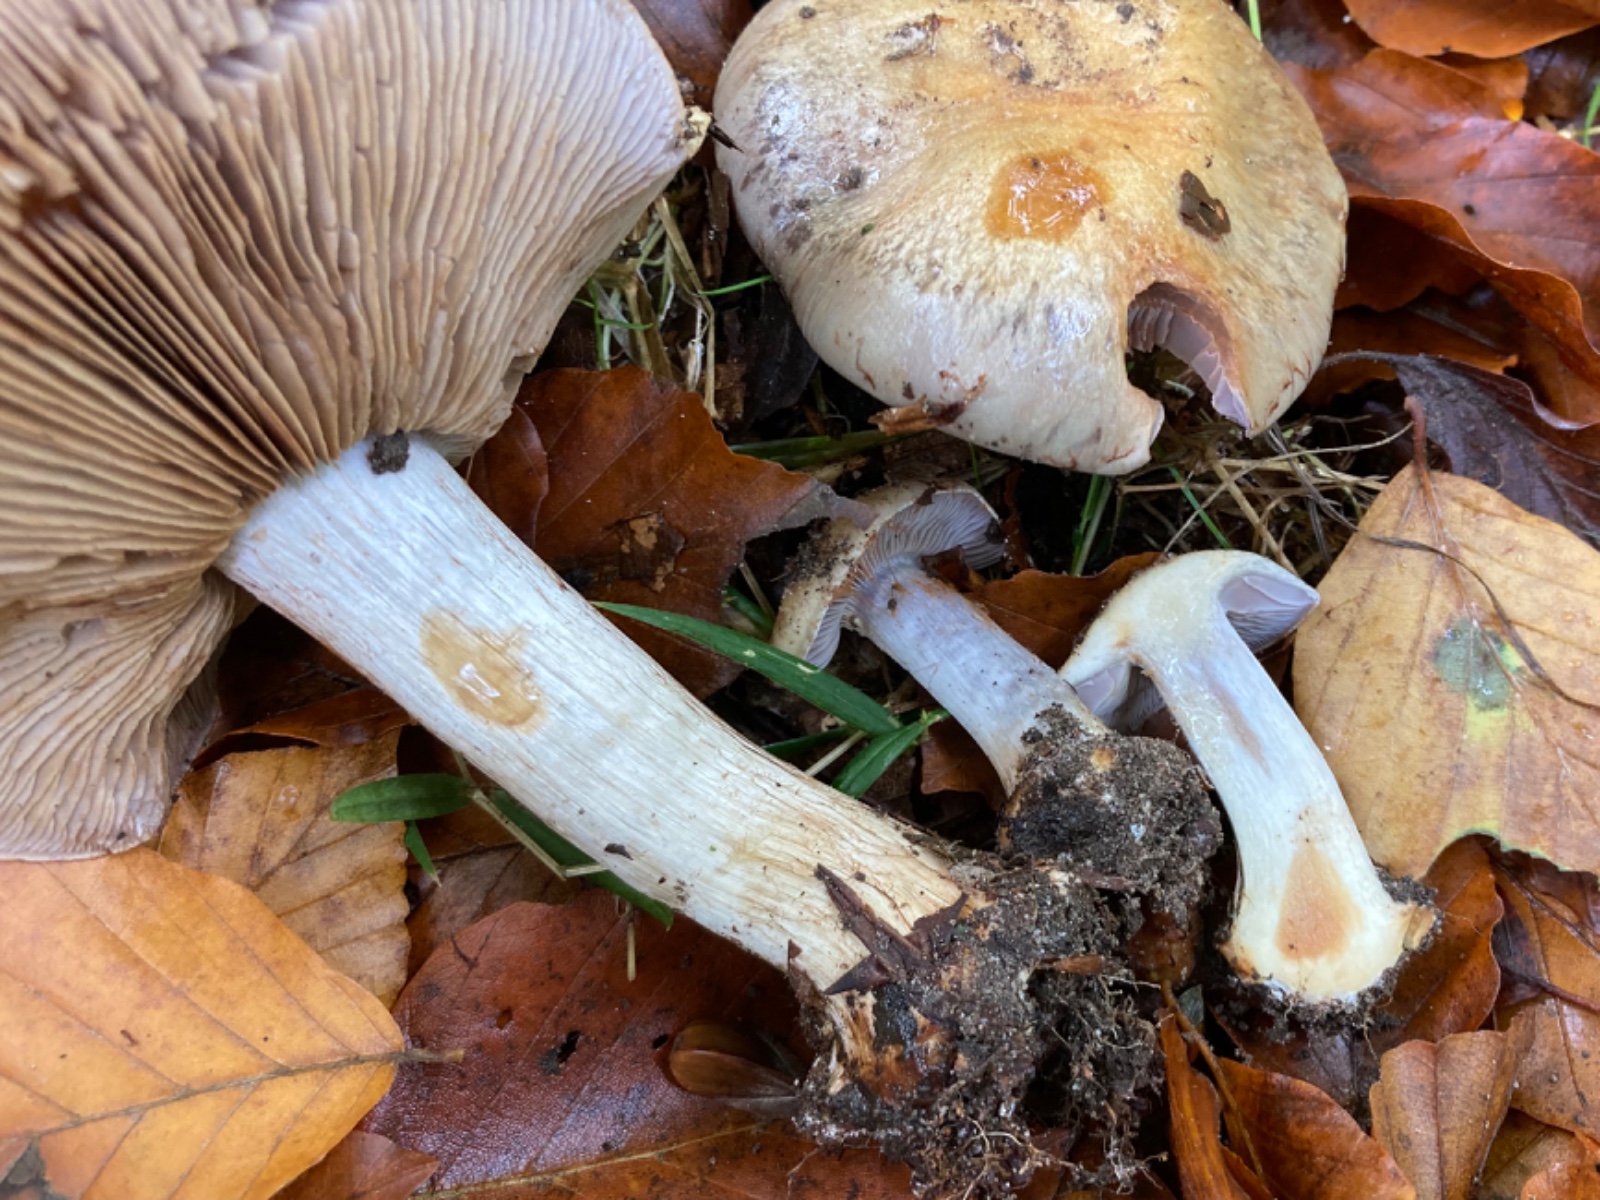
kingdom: Fungi
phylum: Basidiomycota
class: Agaricomycetes
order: Agaricales
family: Cortinariaceae
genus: Phlegmacium
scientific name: Phlegmacium
